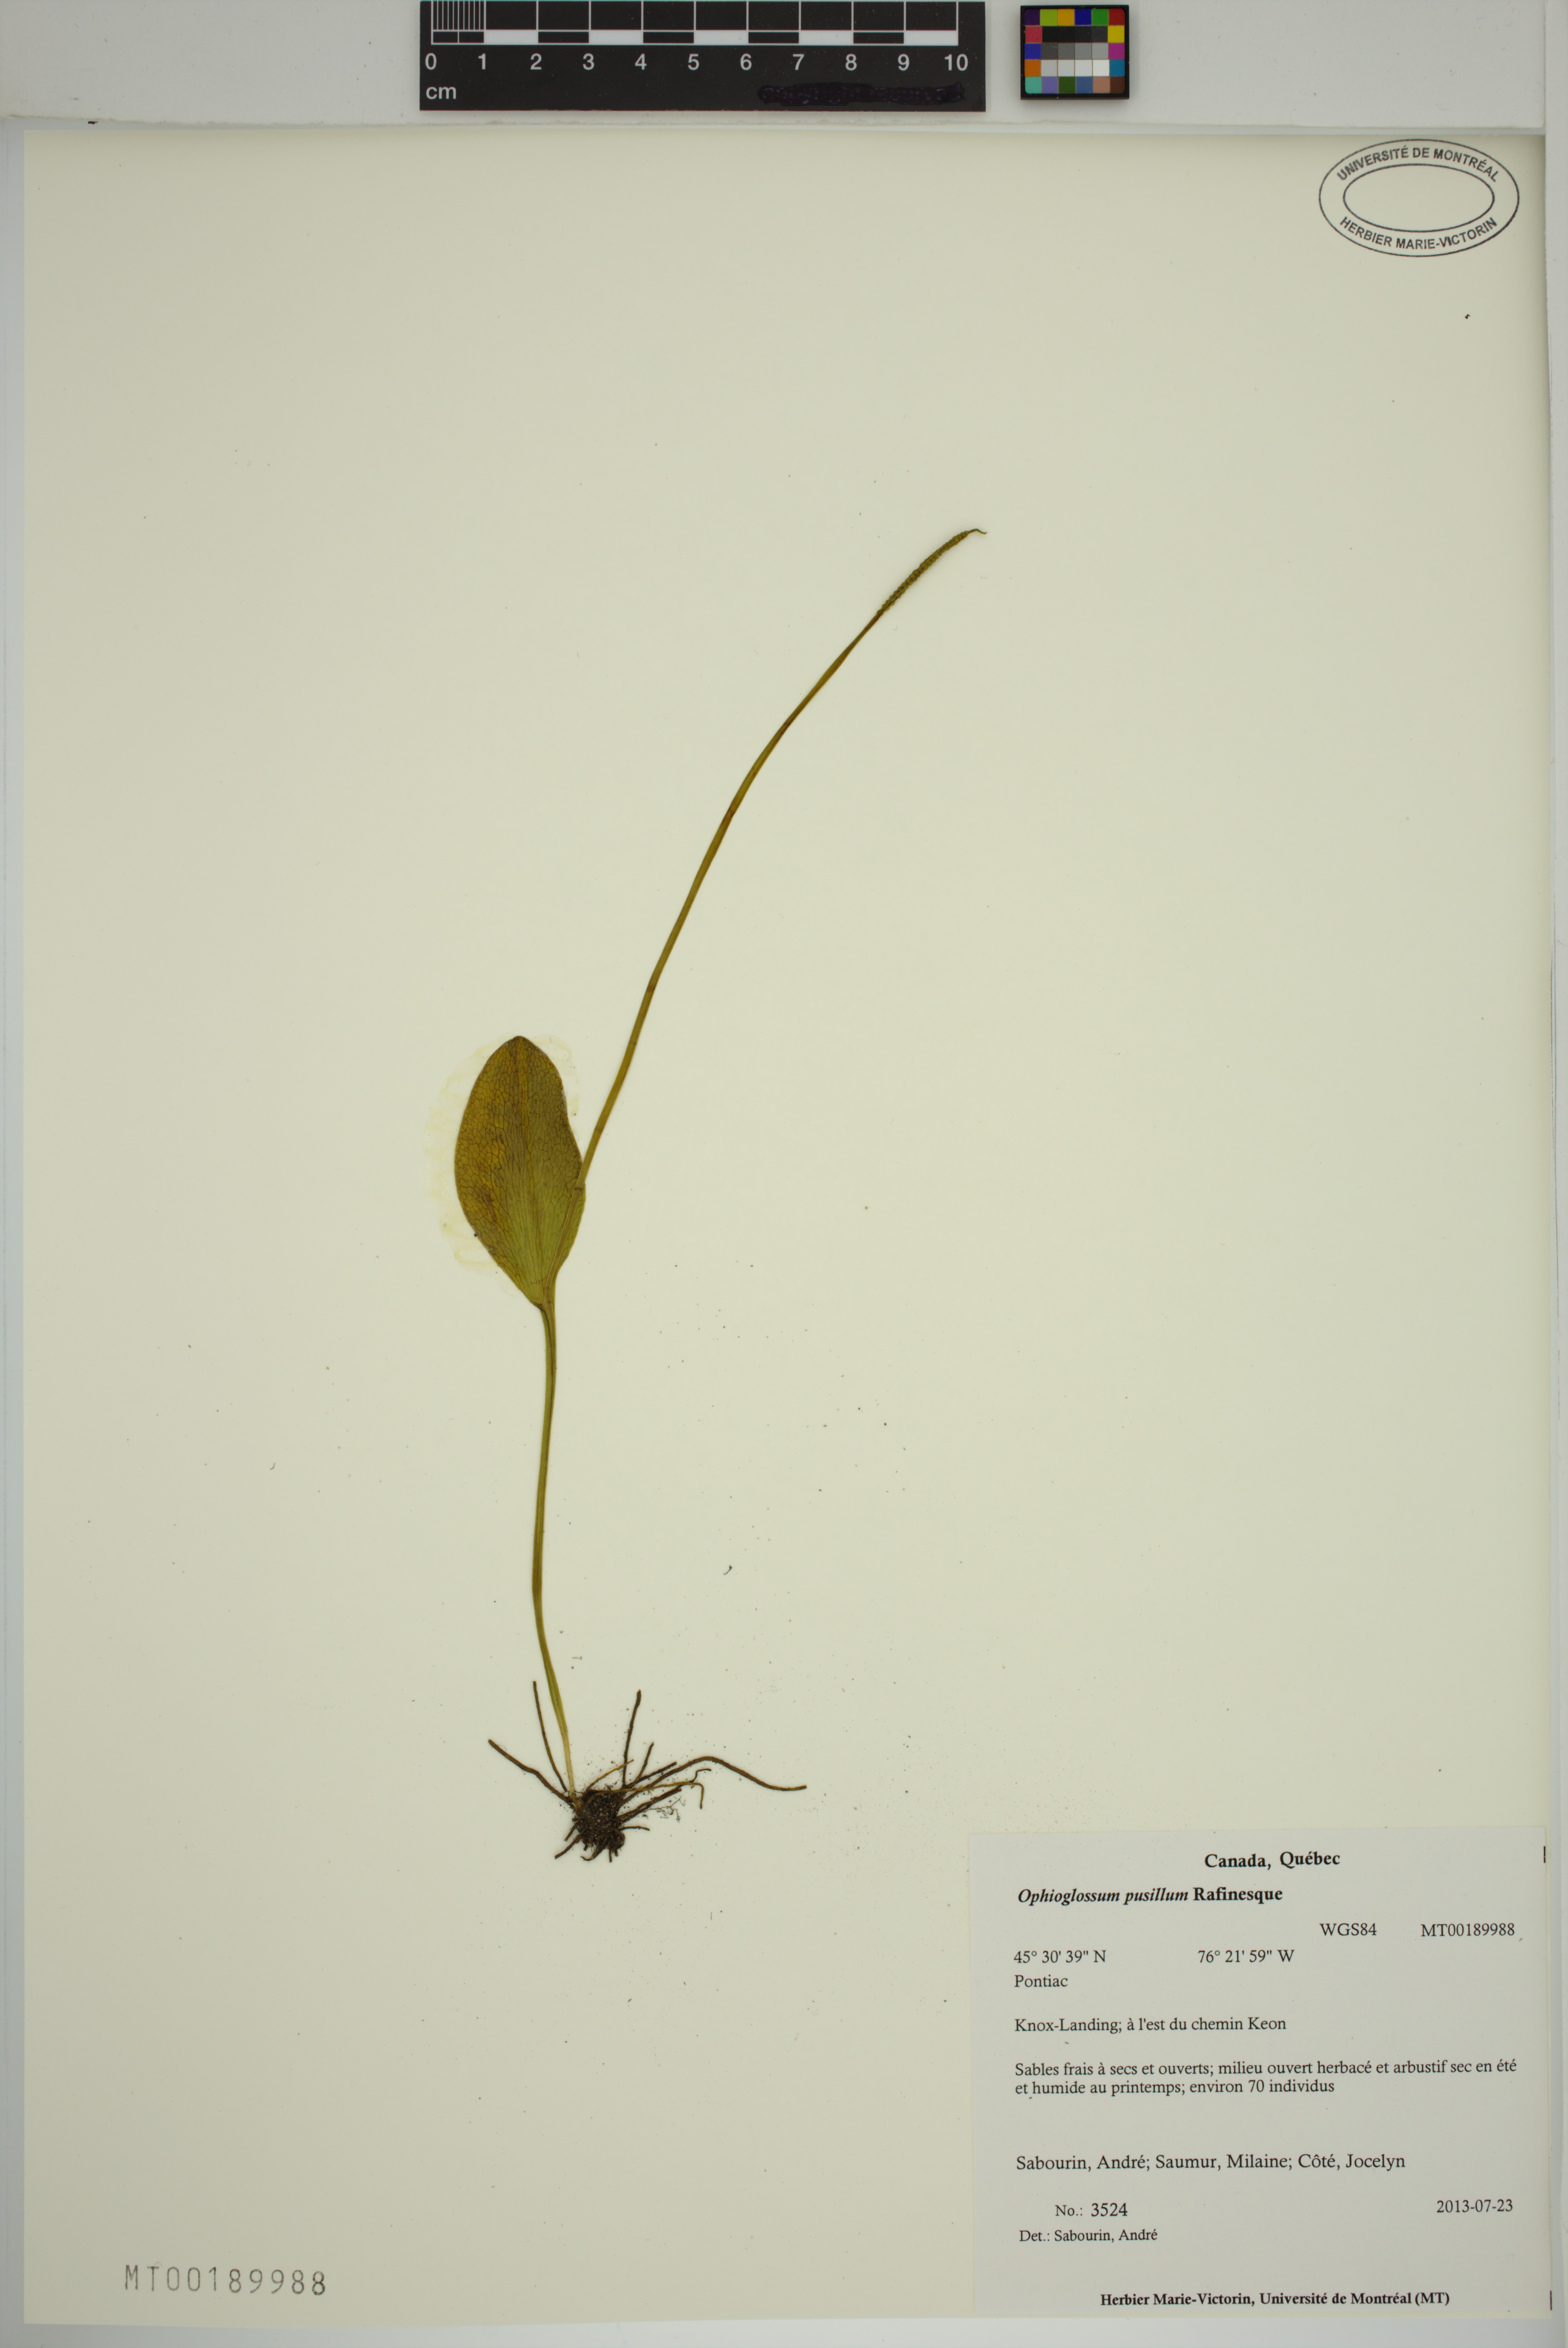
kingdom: Plantae
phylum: Tracheophyta
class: Polypodiopsida
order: Ophioglossales
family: Ophioglossaceae
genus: Ophioglossum
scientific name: Ophioglossum pusillum
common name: Northern adder's-tongue
